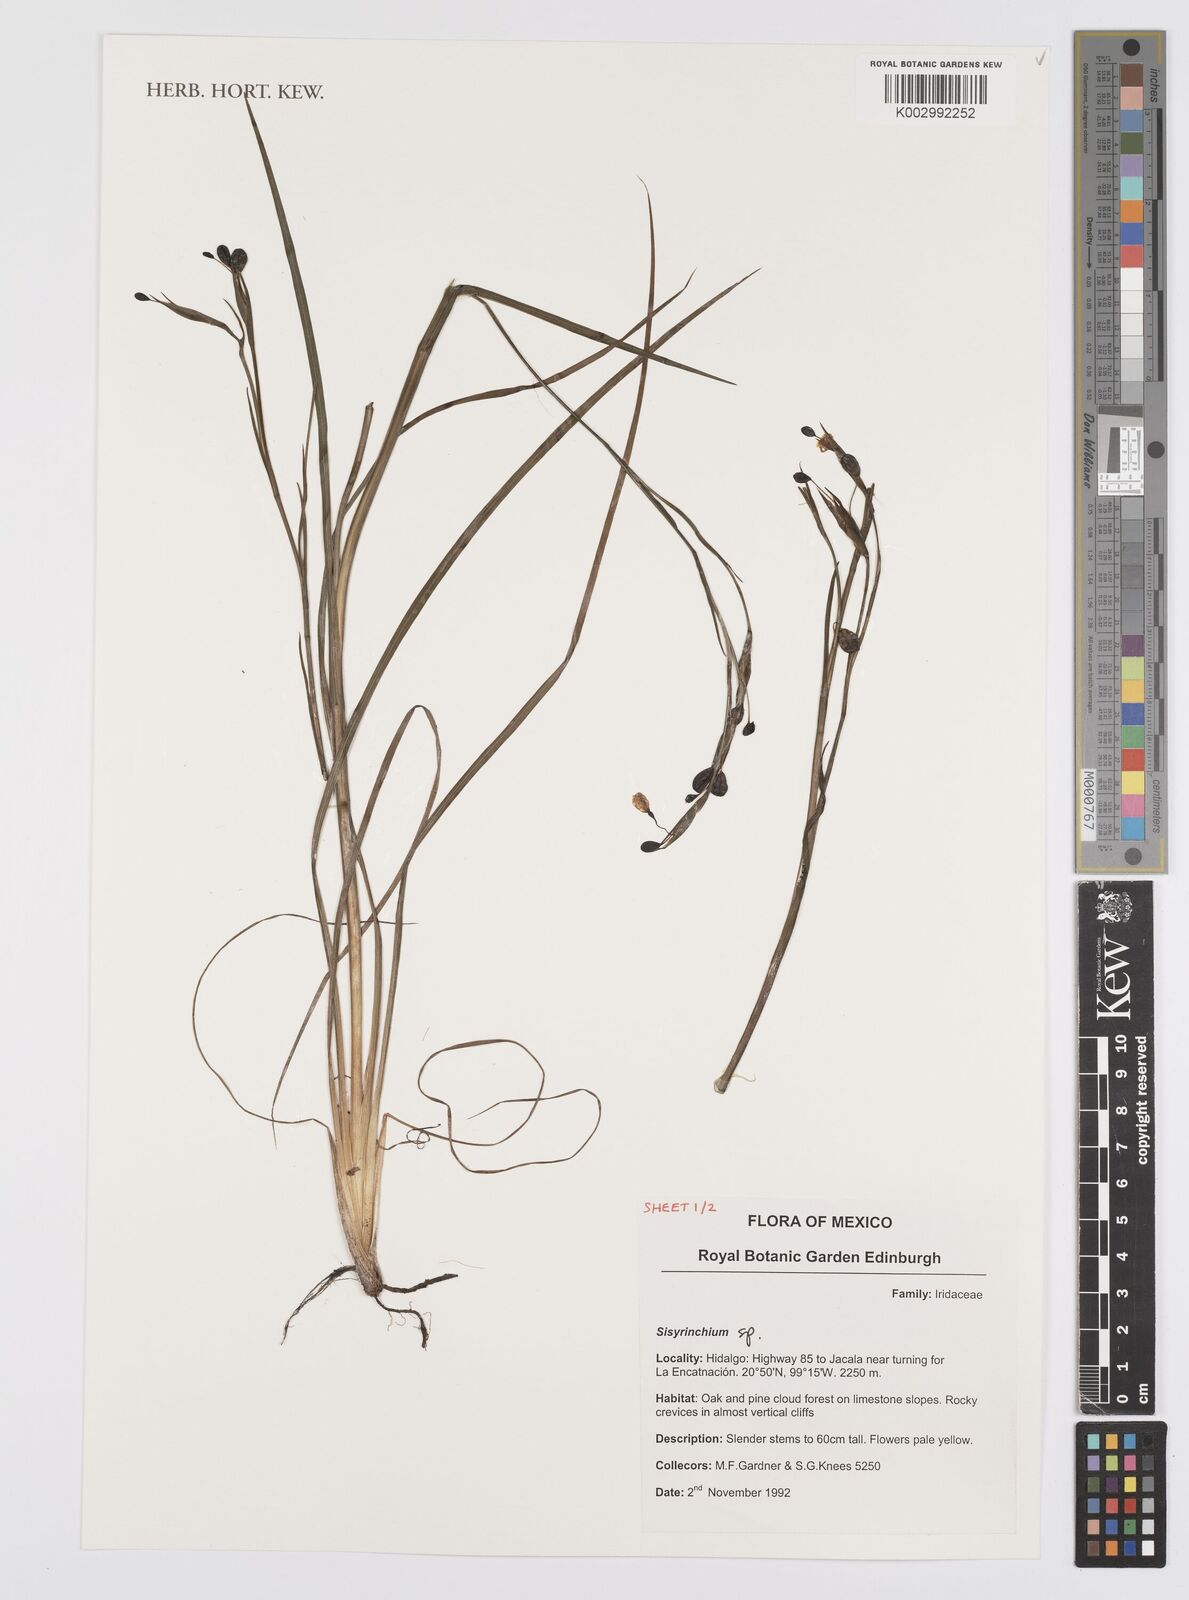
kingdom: Plantae
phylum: Tracheophyta
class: Liliopsida
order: Asparagales
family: Iridaceae
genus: Sisyrinchium
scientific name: Sisyrinchium
